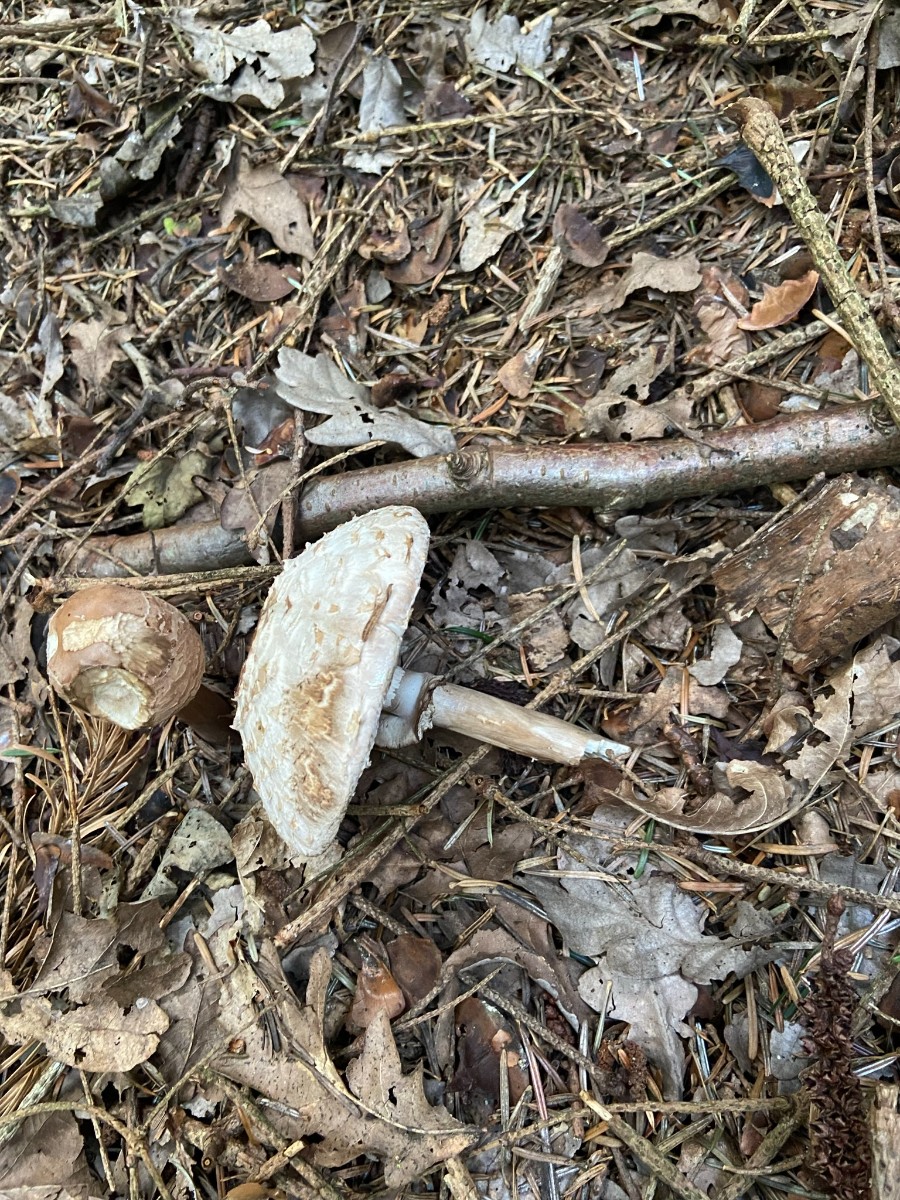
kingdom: Fungi
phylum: Basidiomycota
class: Agaricomycetes
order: Agaricales
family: Agaricaceae
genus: Chlorophyllum
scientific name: Chlorophyllum
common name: rabarberhat
